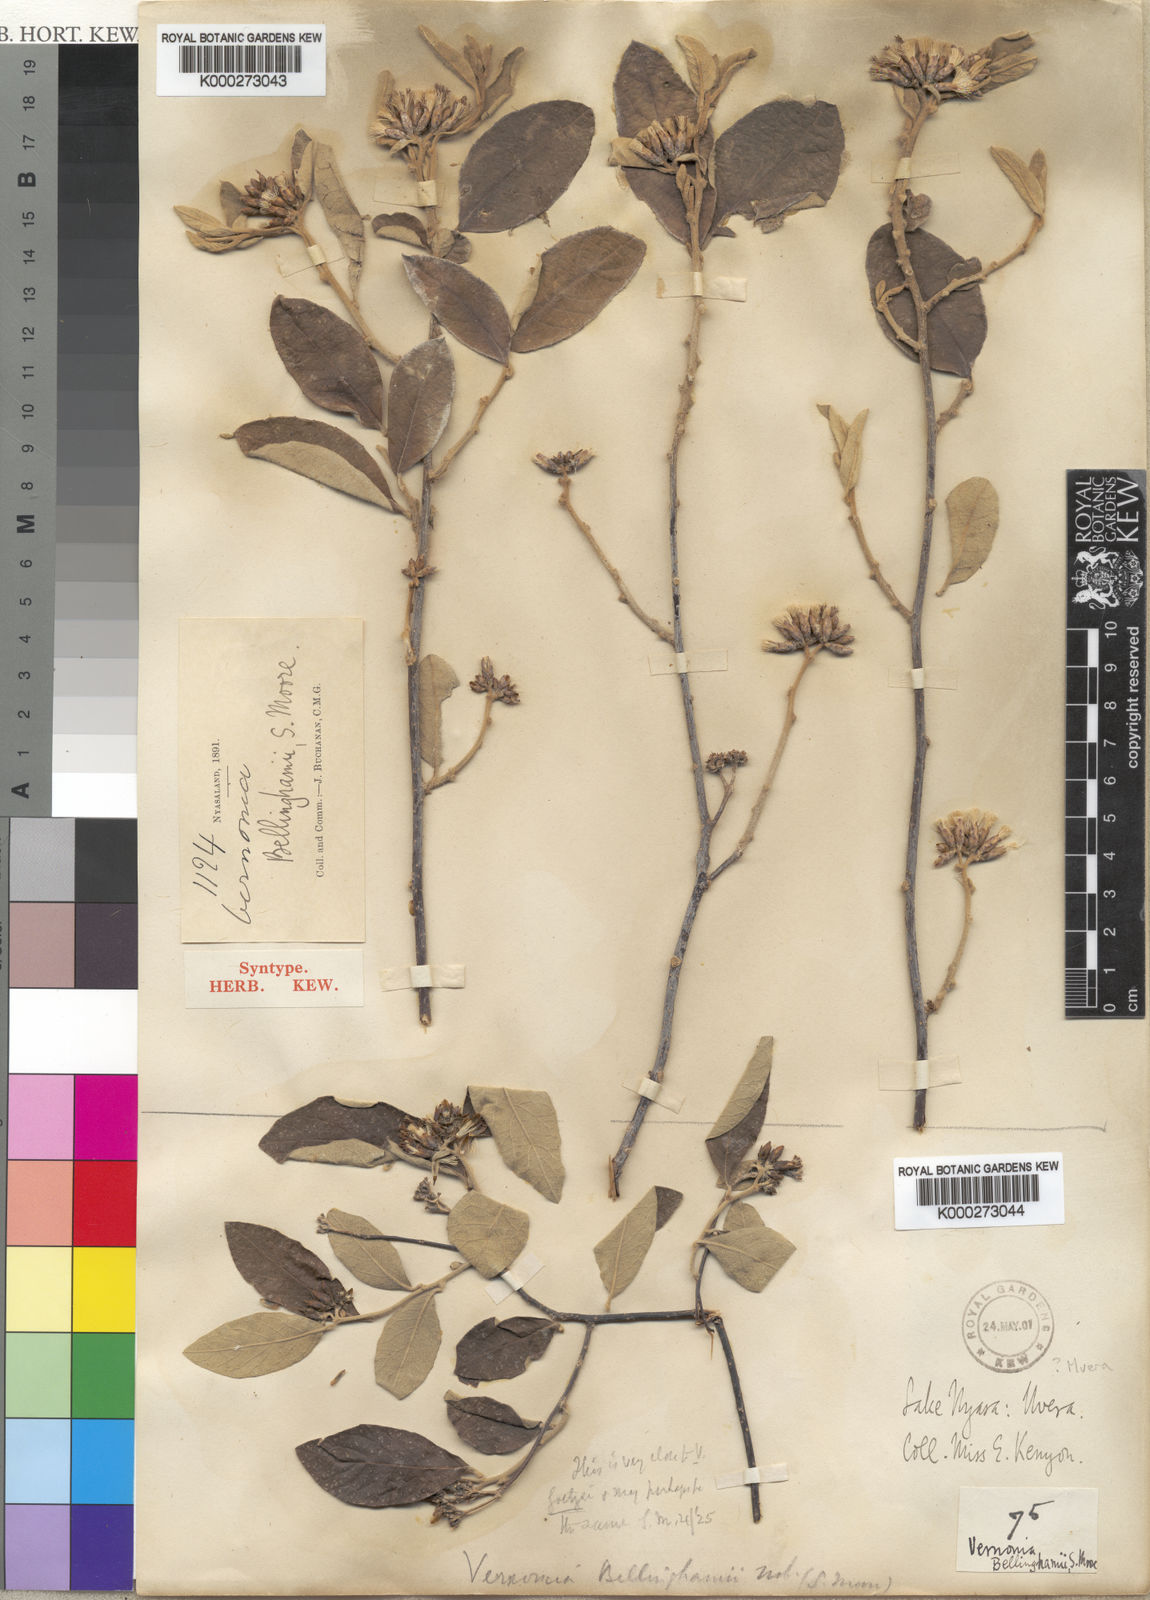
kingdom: Plantae
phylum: Tracheophyta
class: Magnoliopsida
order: Asterales
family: Asteraceae
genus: Gymnanthemum
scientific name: Gymnanthemum bellinghamii
